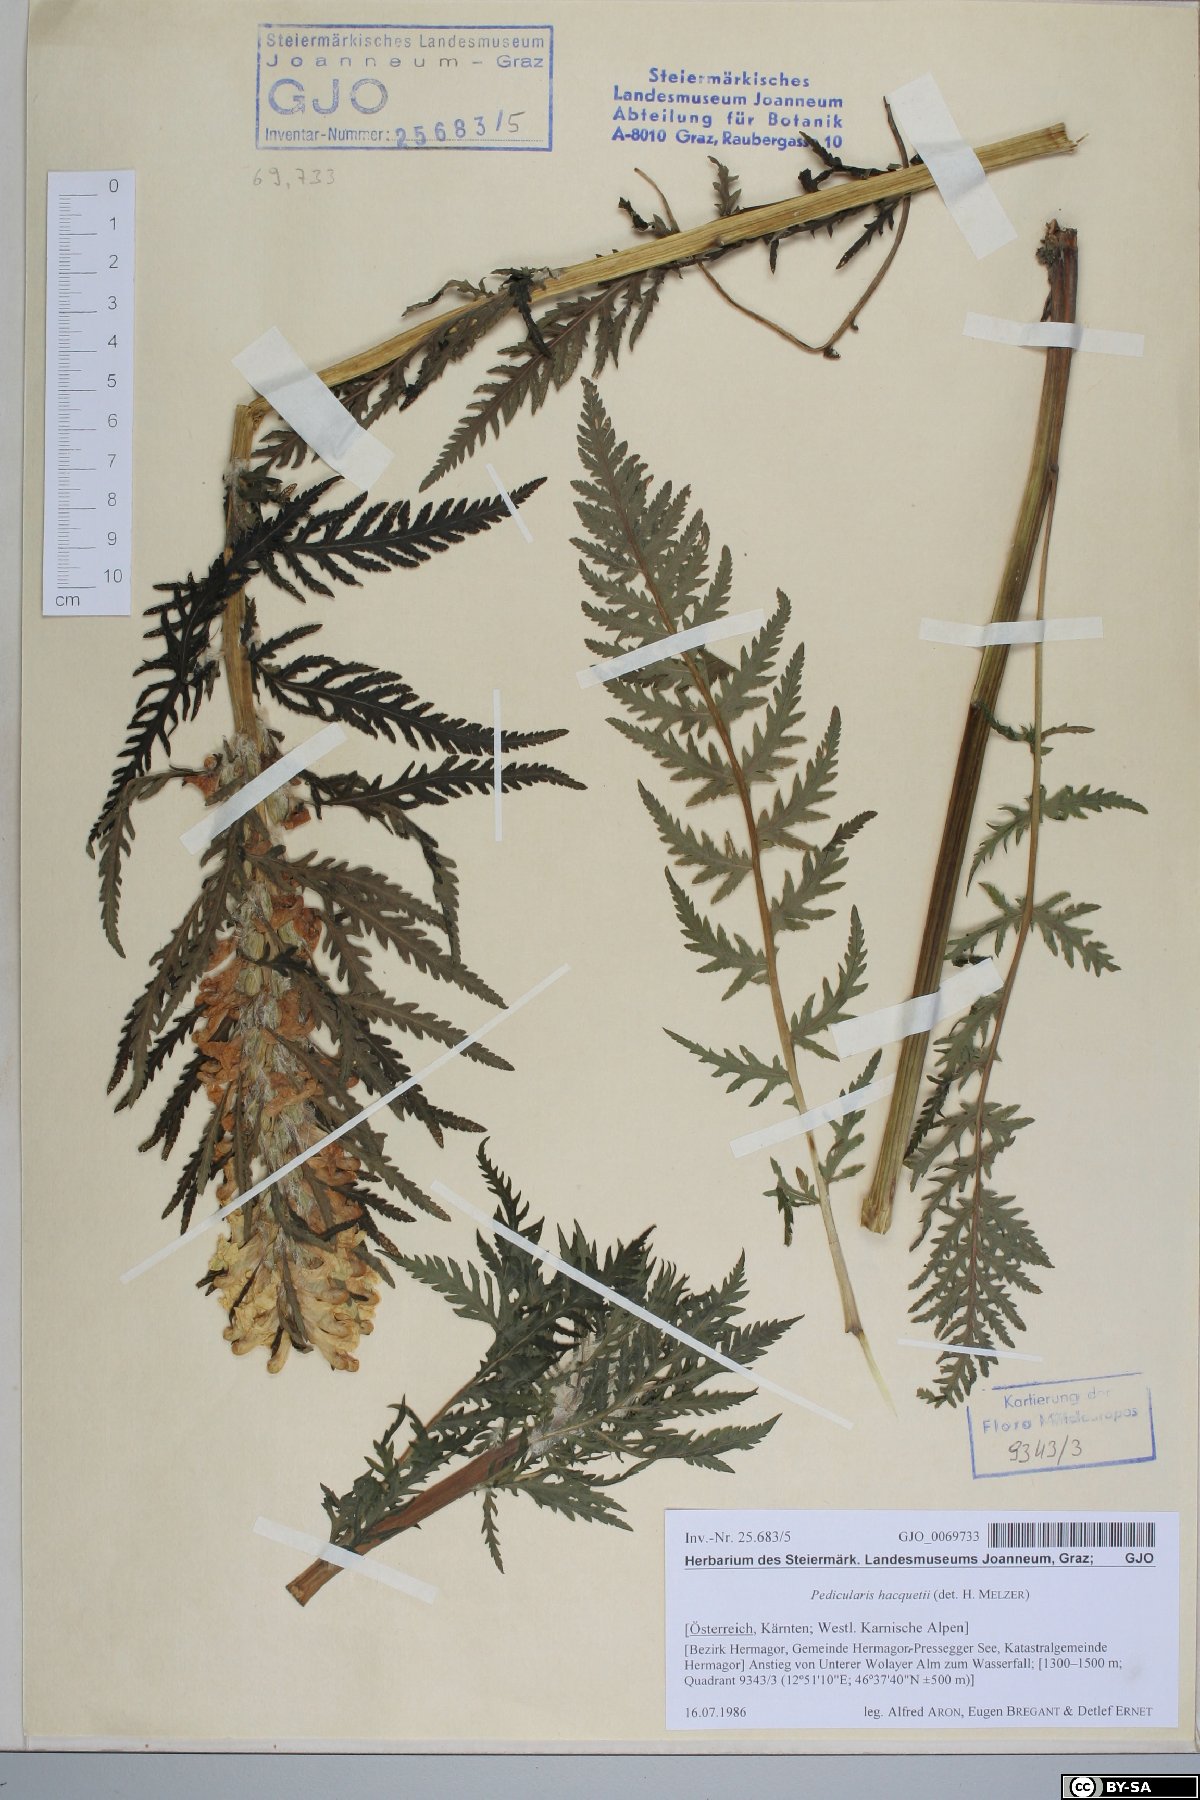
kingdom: Plantae
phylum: Tracheophyta
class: Magnoliopsida
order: Lamiales
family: Orobanchaceae
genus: Pedicularis
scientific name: Pedicularis hacquetii
